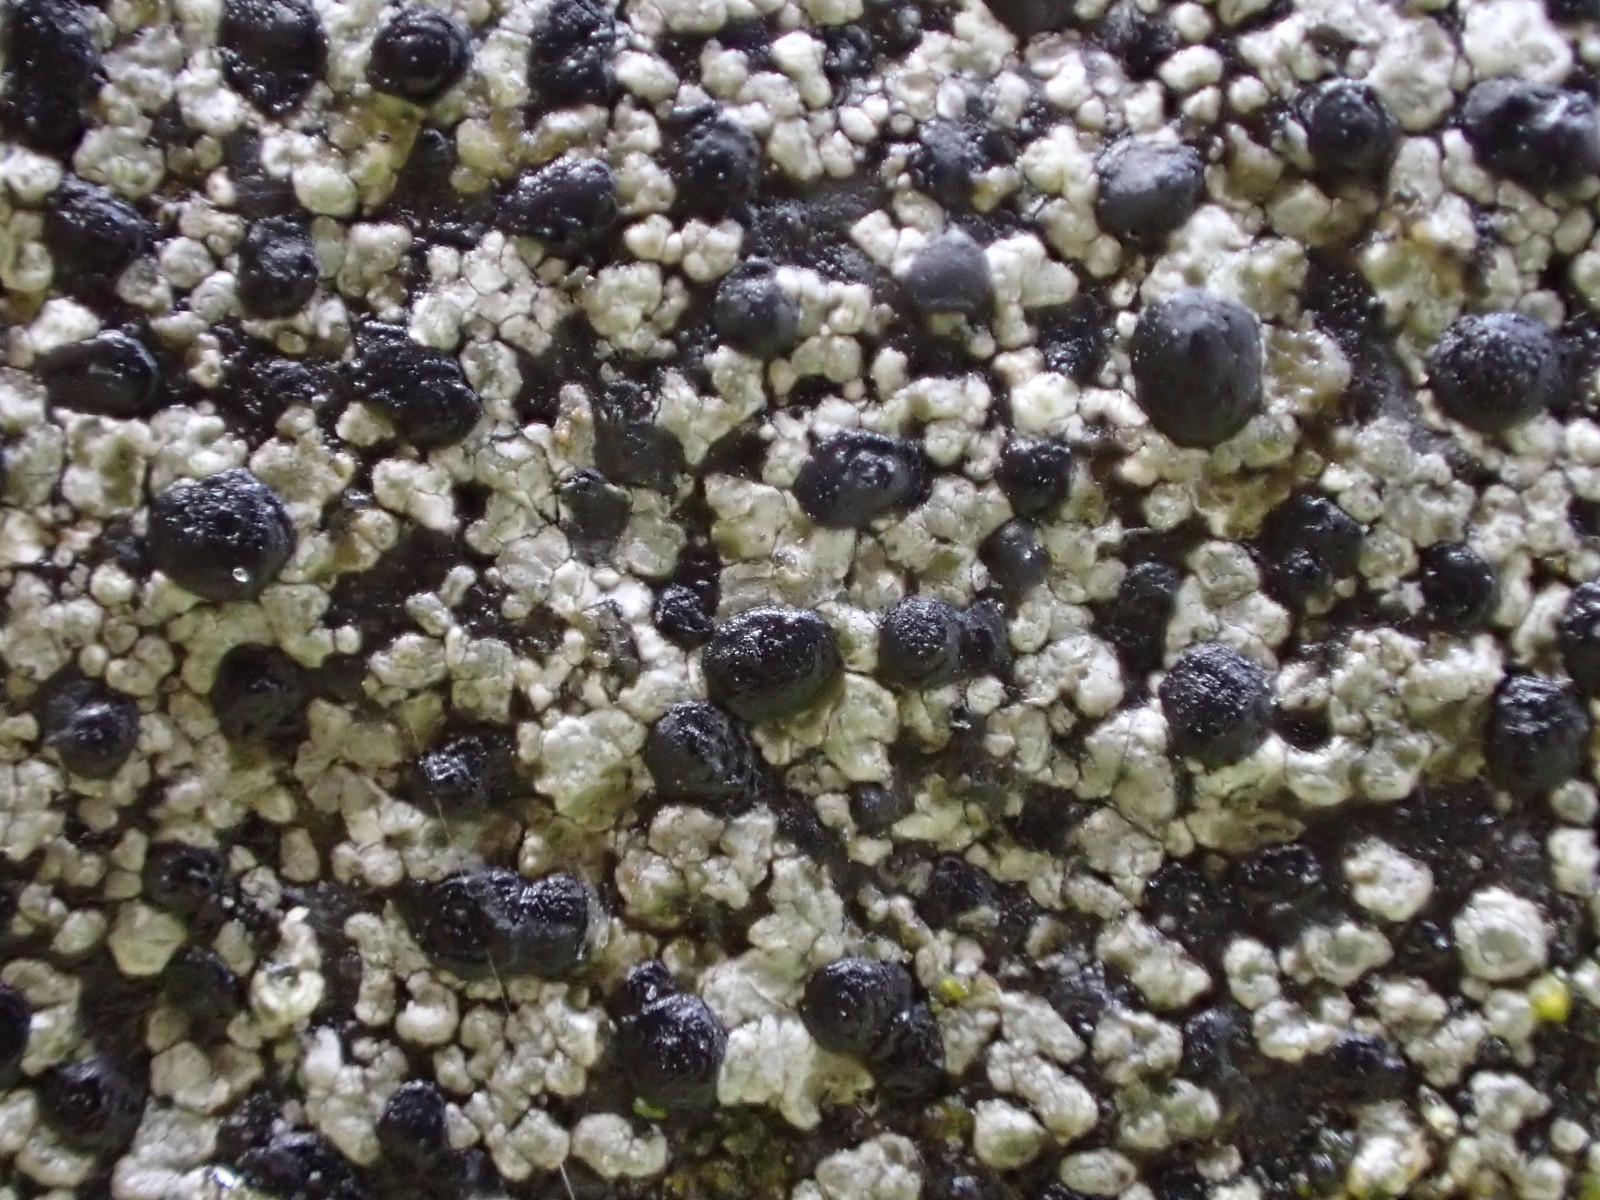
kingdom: Fungi
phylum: Ascomycota
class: Lecanoromycetes
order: Rhizocarpales
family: Rhizocarpaceae
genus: Rhizocarpon
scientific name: Rhizocarpon reductum
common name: mørk landkortlav
